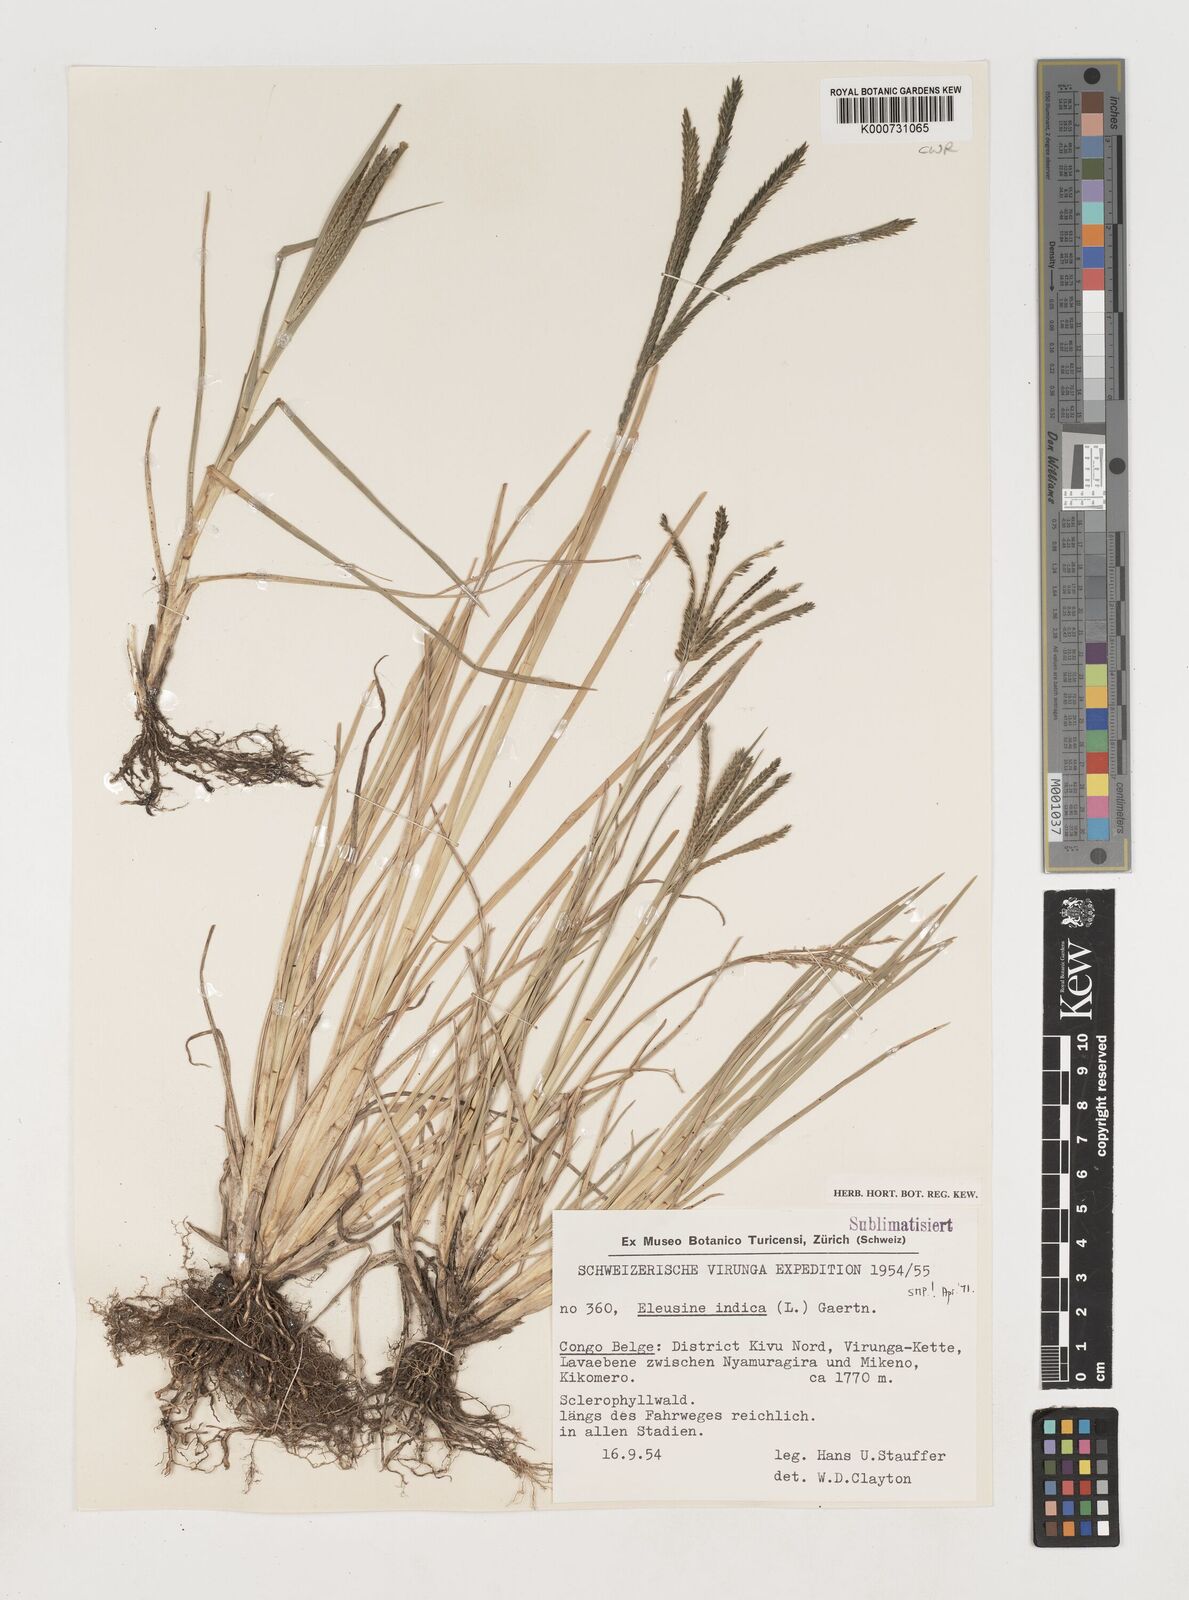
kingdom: Plantae
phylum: Tracheophyta
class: Liliopsida
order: Poales
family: Poaceae
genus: Eleusine
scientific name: Eleusine indica
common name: Yard-grass
